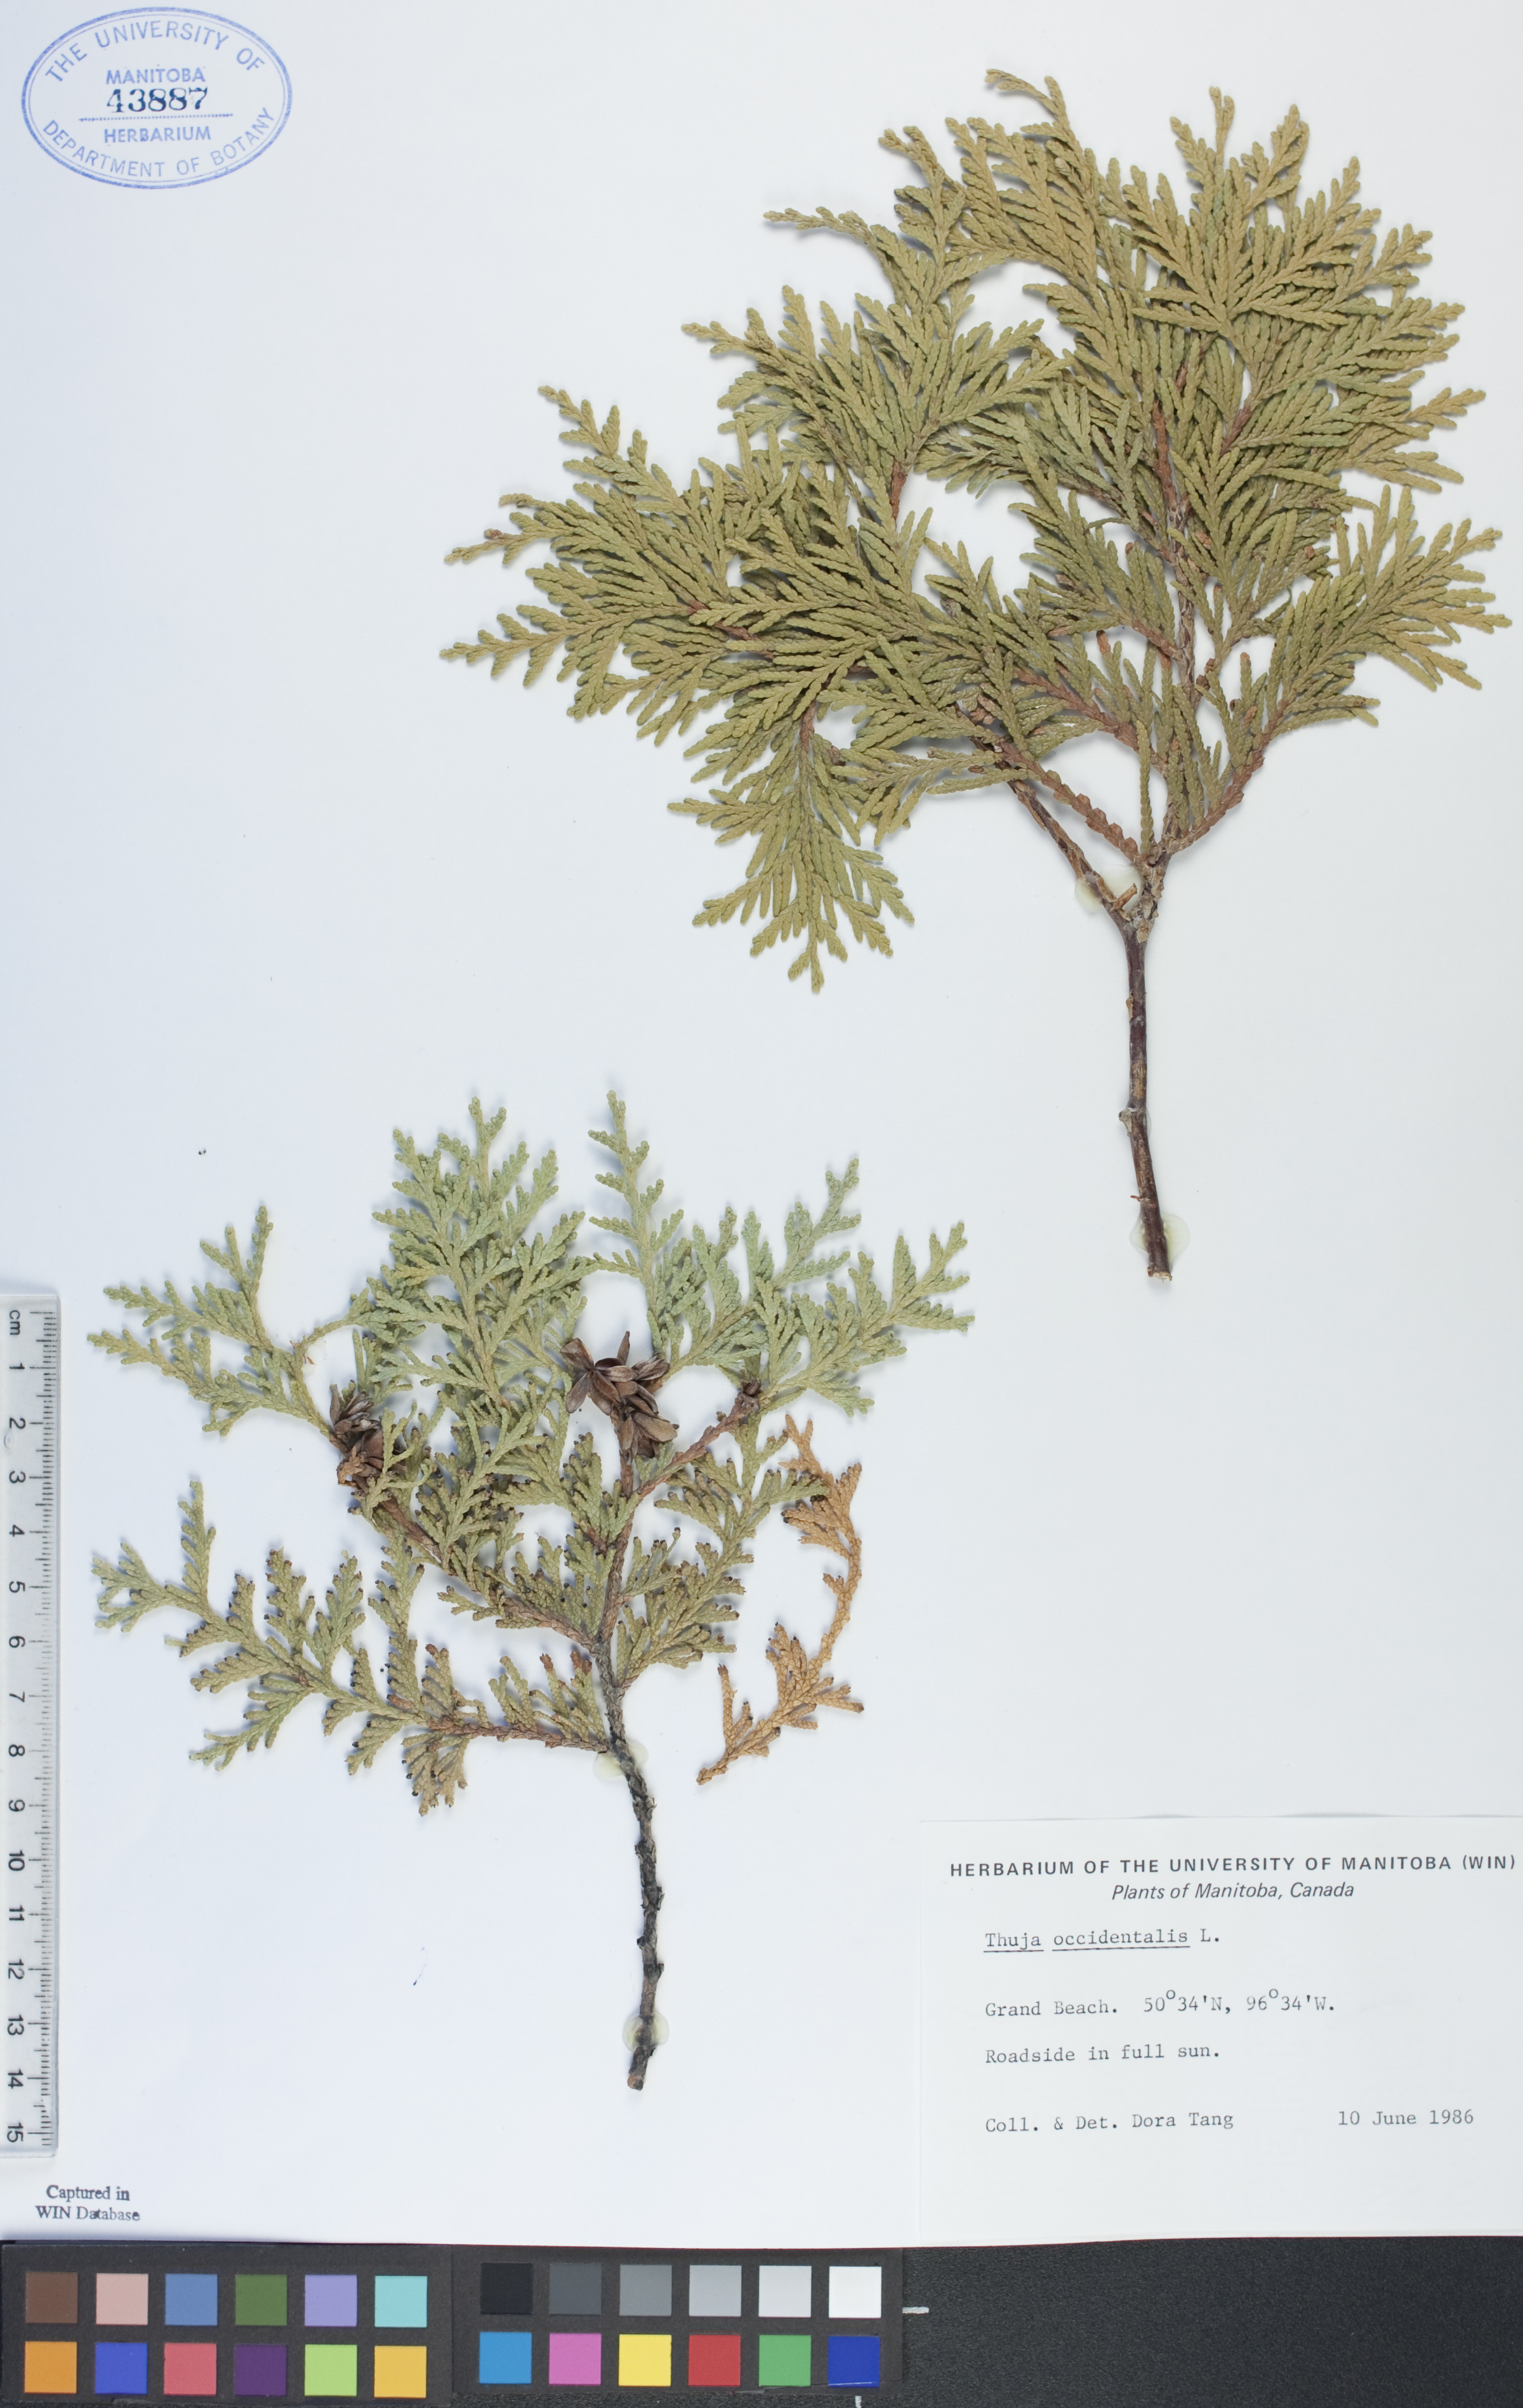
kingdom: Plantae
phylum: Tracheophyta
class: Pinopsida
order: Pinales
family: Cupressaceae
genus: Thuja
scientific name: Thuja occidentalis
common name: Northern white-cedar
